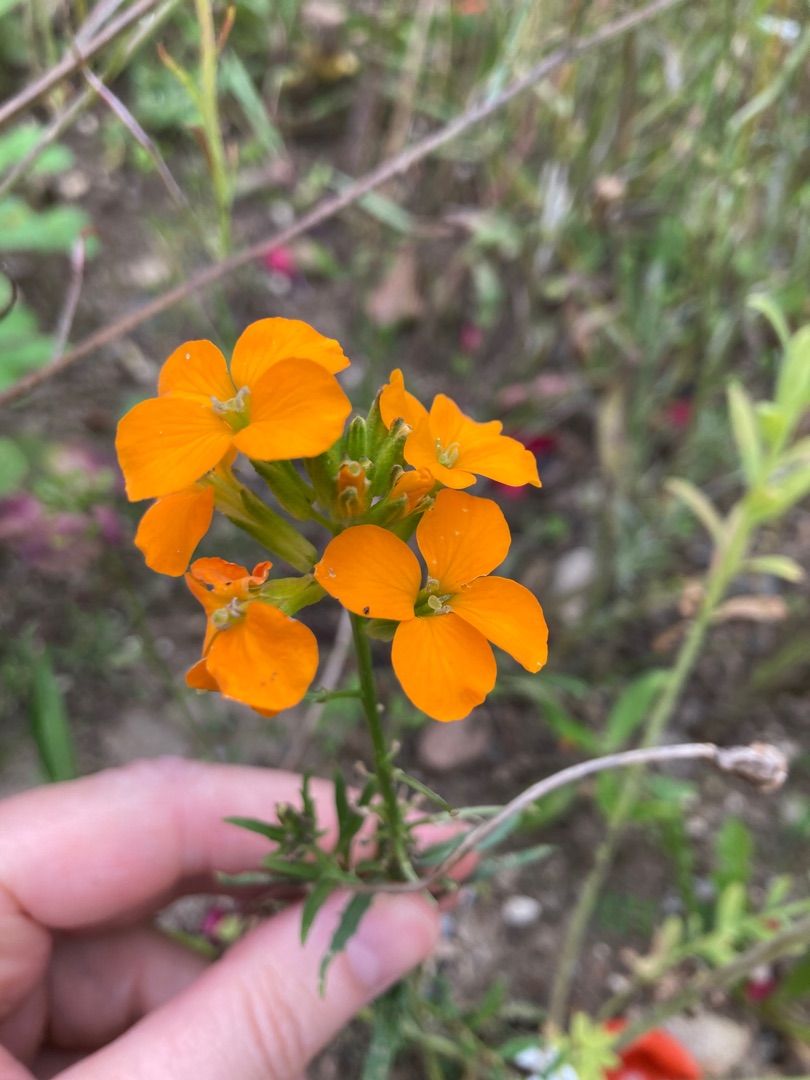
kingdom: Plantae
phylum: Tracheophyta
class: Magnoliopsida
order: Brassicales
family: Brassicaceae
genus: Erysimum
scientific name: Erysimum marshallii
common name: Sibirisk hjørneklap
